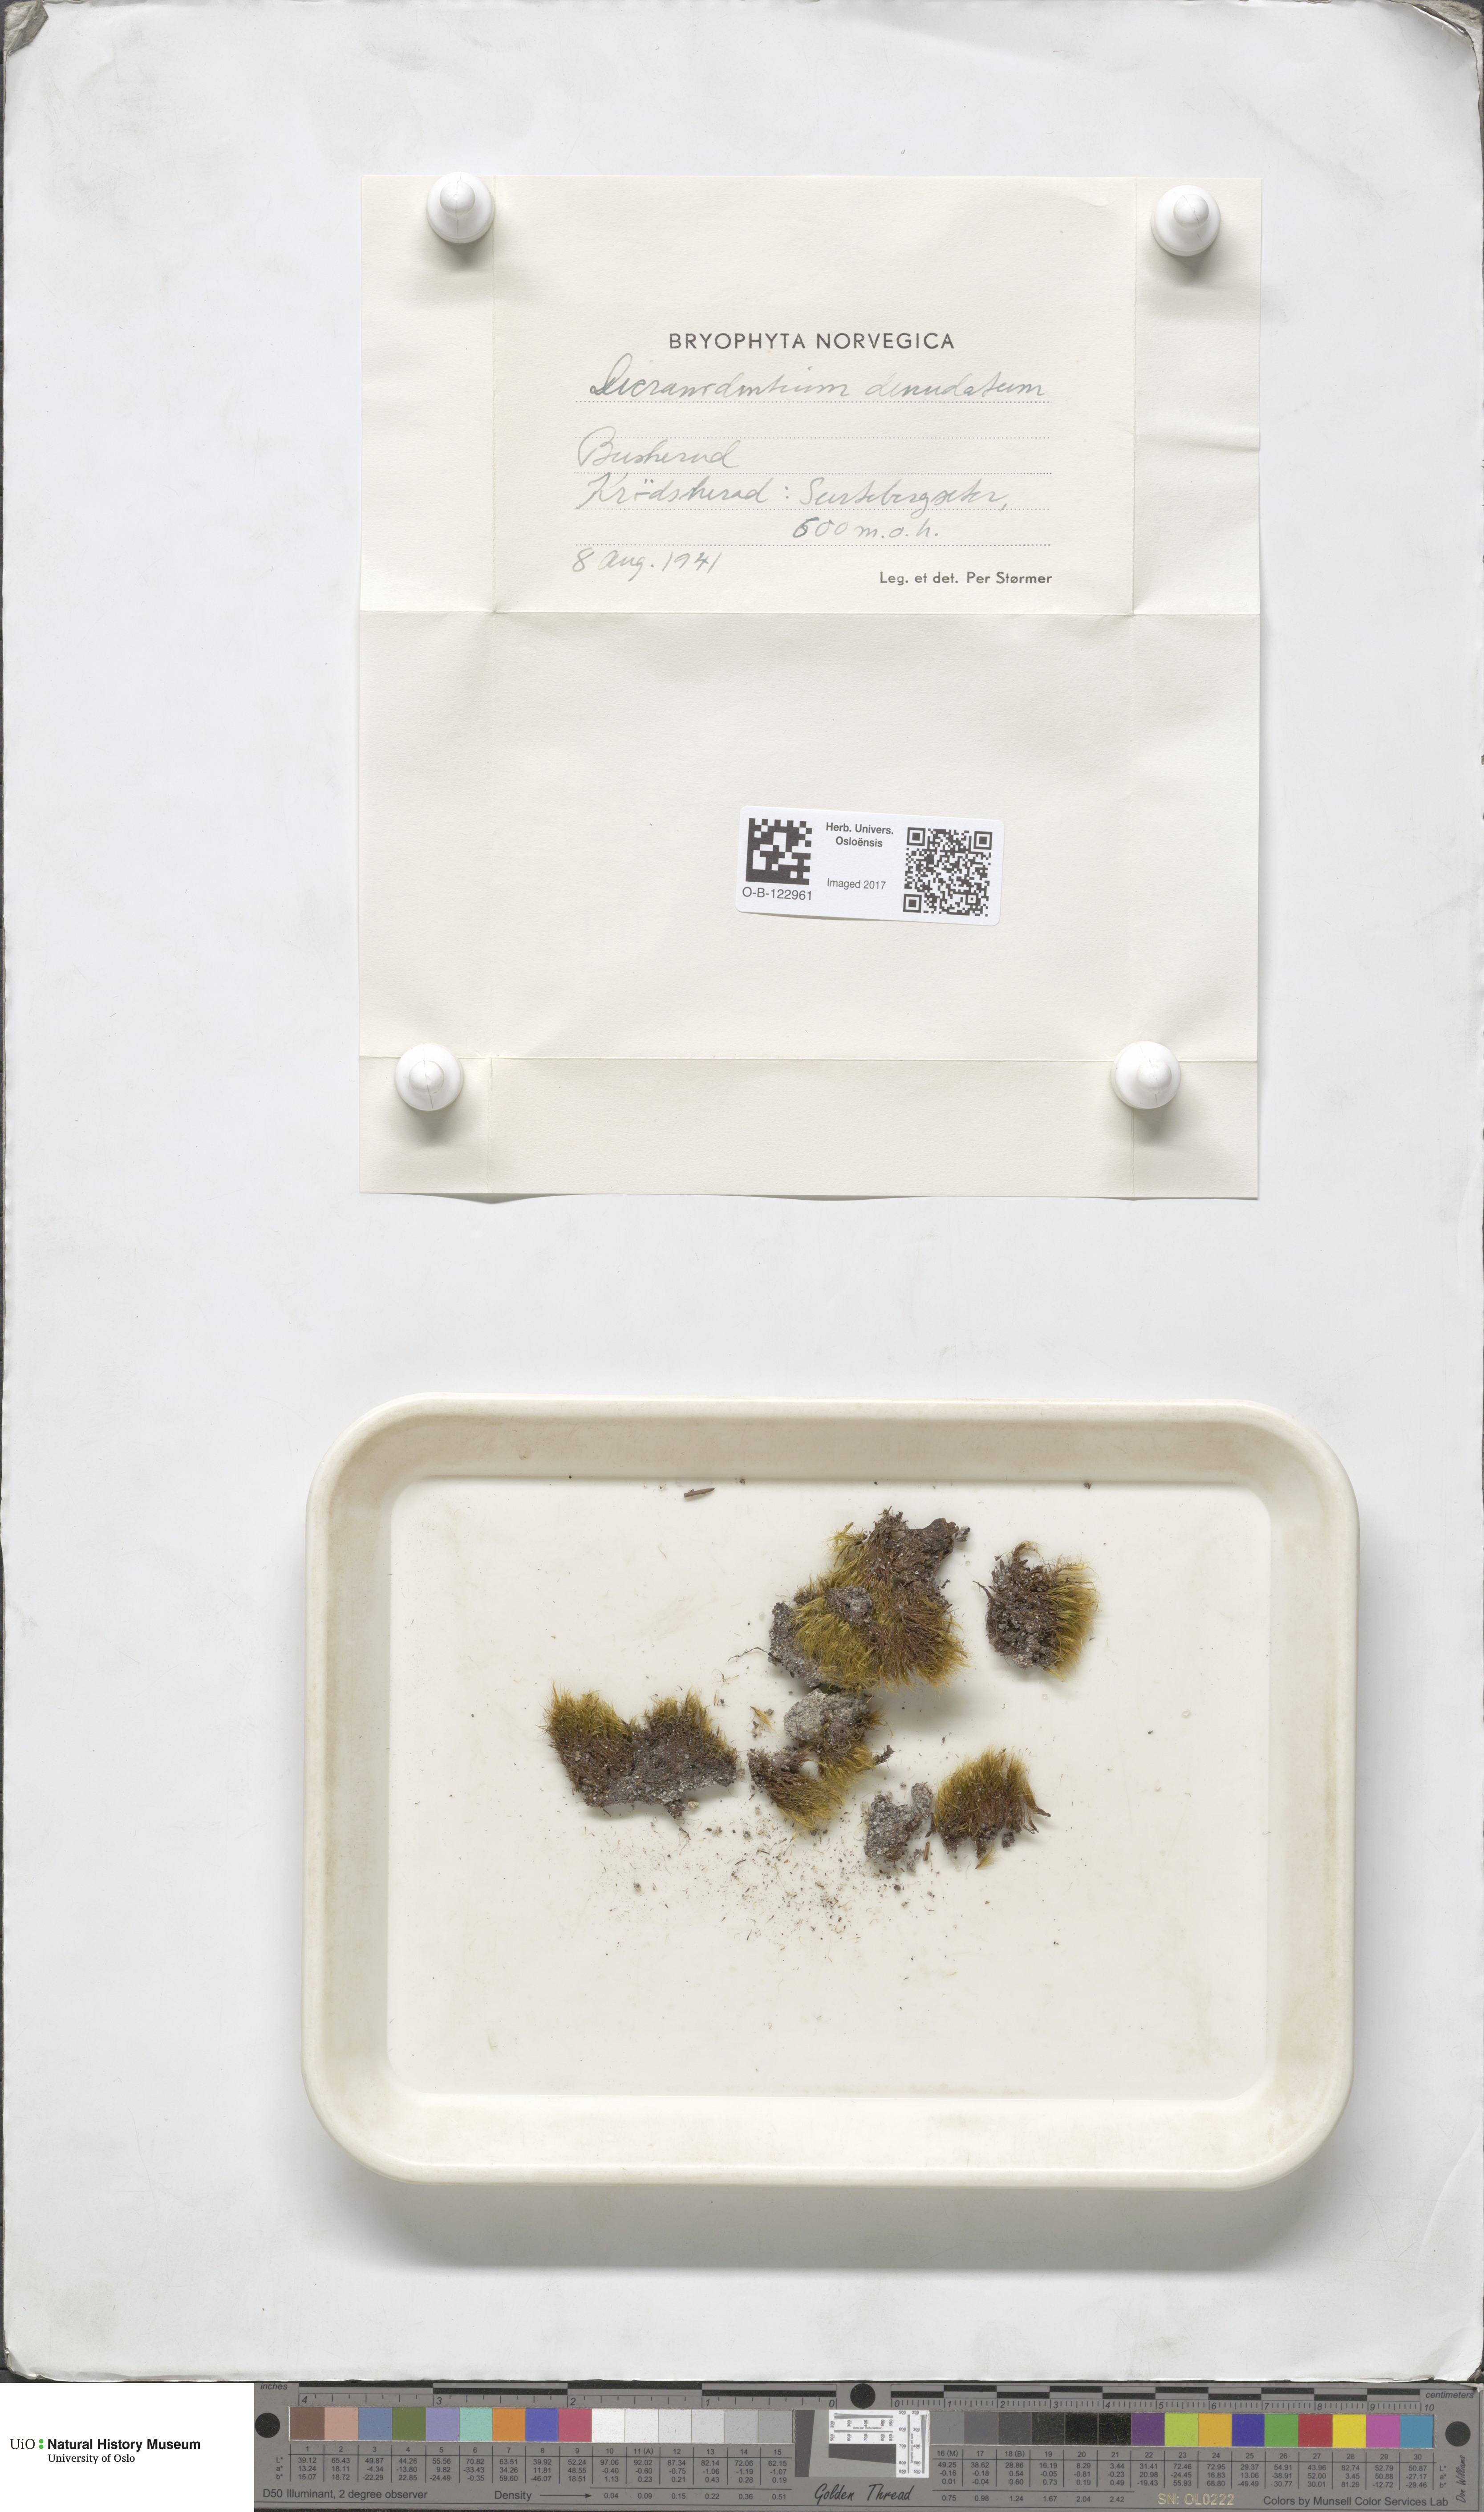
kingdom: Plantae
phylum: Bryophyta
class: Bryopsida
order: Dicranales
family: Leucobryaceae
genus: Dicranodontium
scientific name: Dicranodontium denudatum
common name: Beaked bow moss
